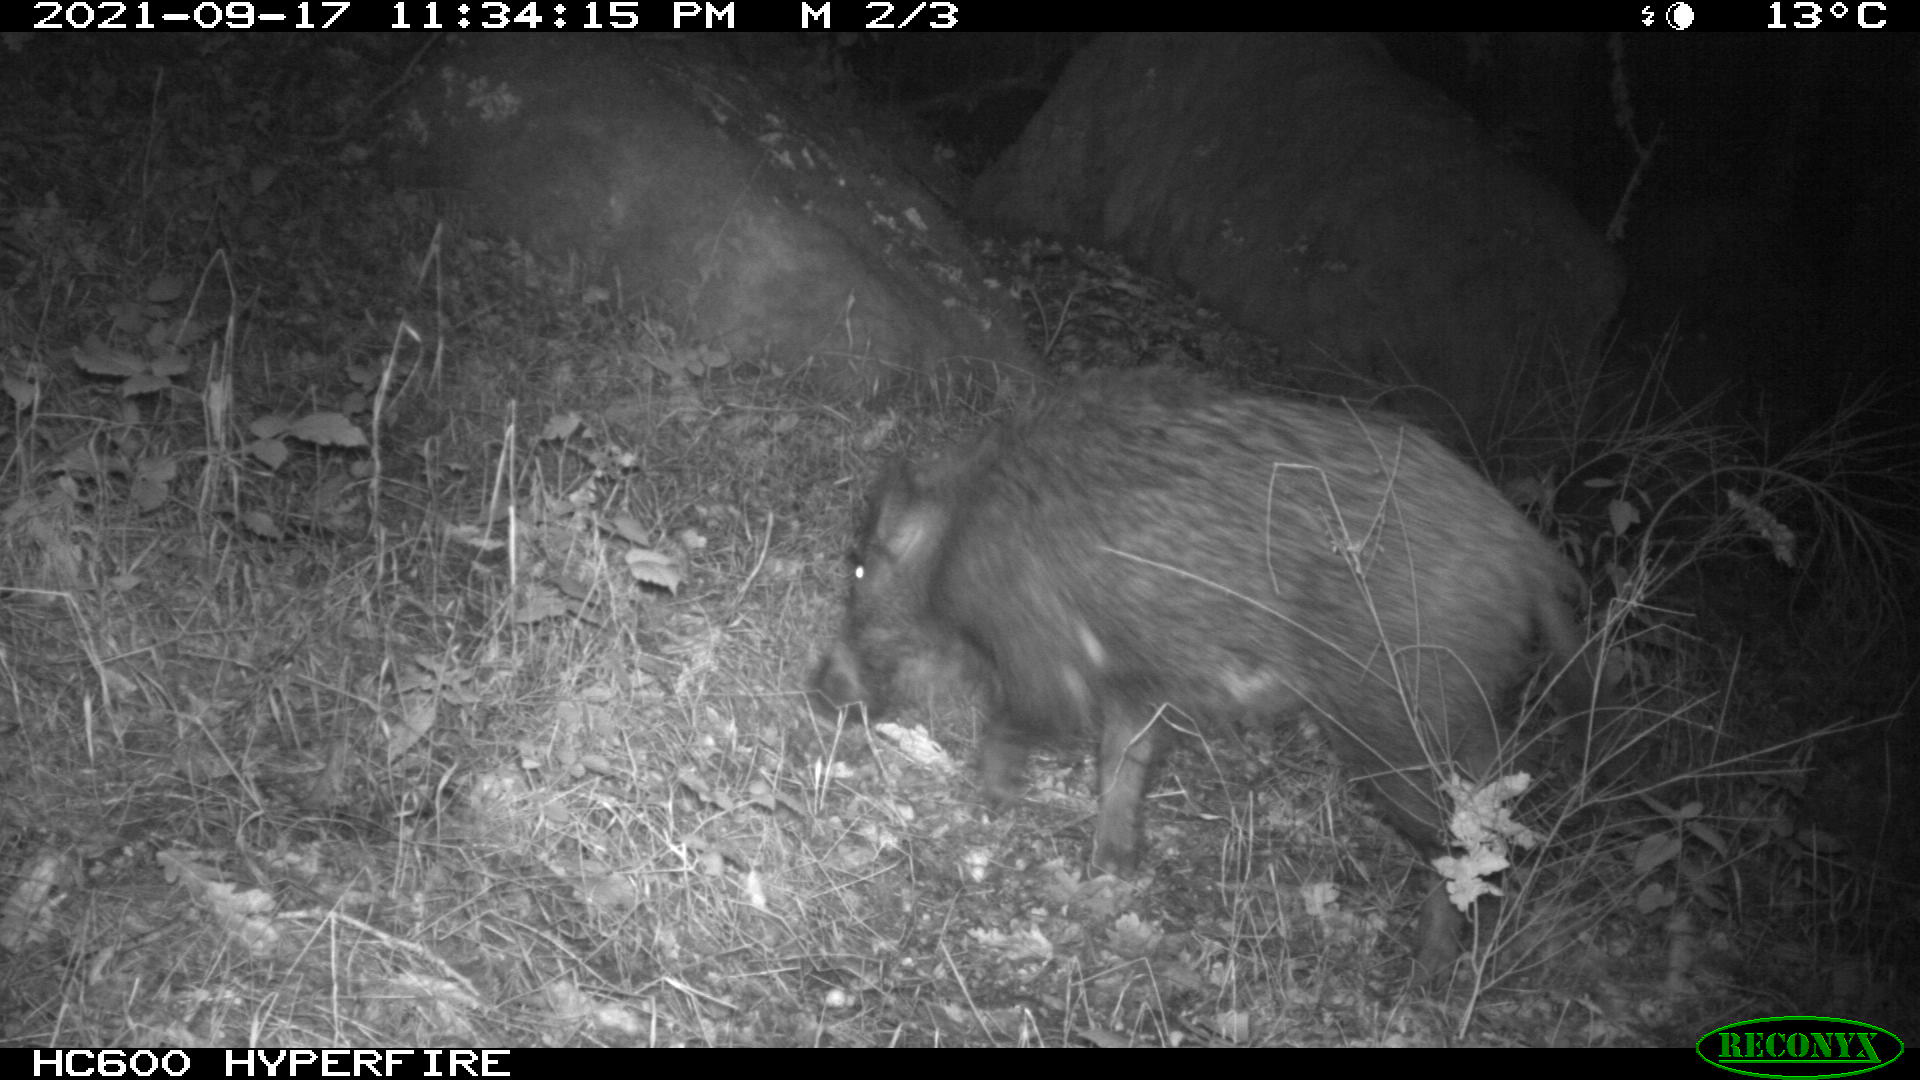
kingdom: Animalia
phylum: Chordata
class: Mammalia
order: Artiodactyla
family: Suidae
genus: Sus
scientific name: Sus scrofa
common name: Wild boar
